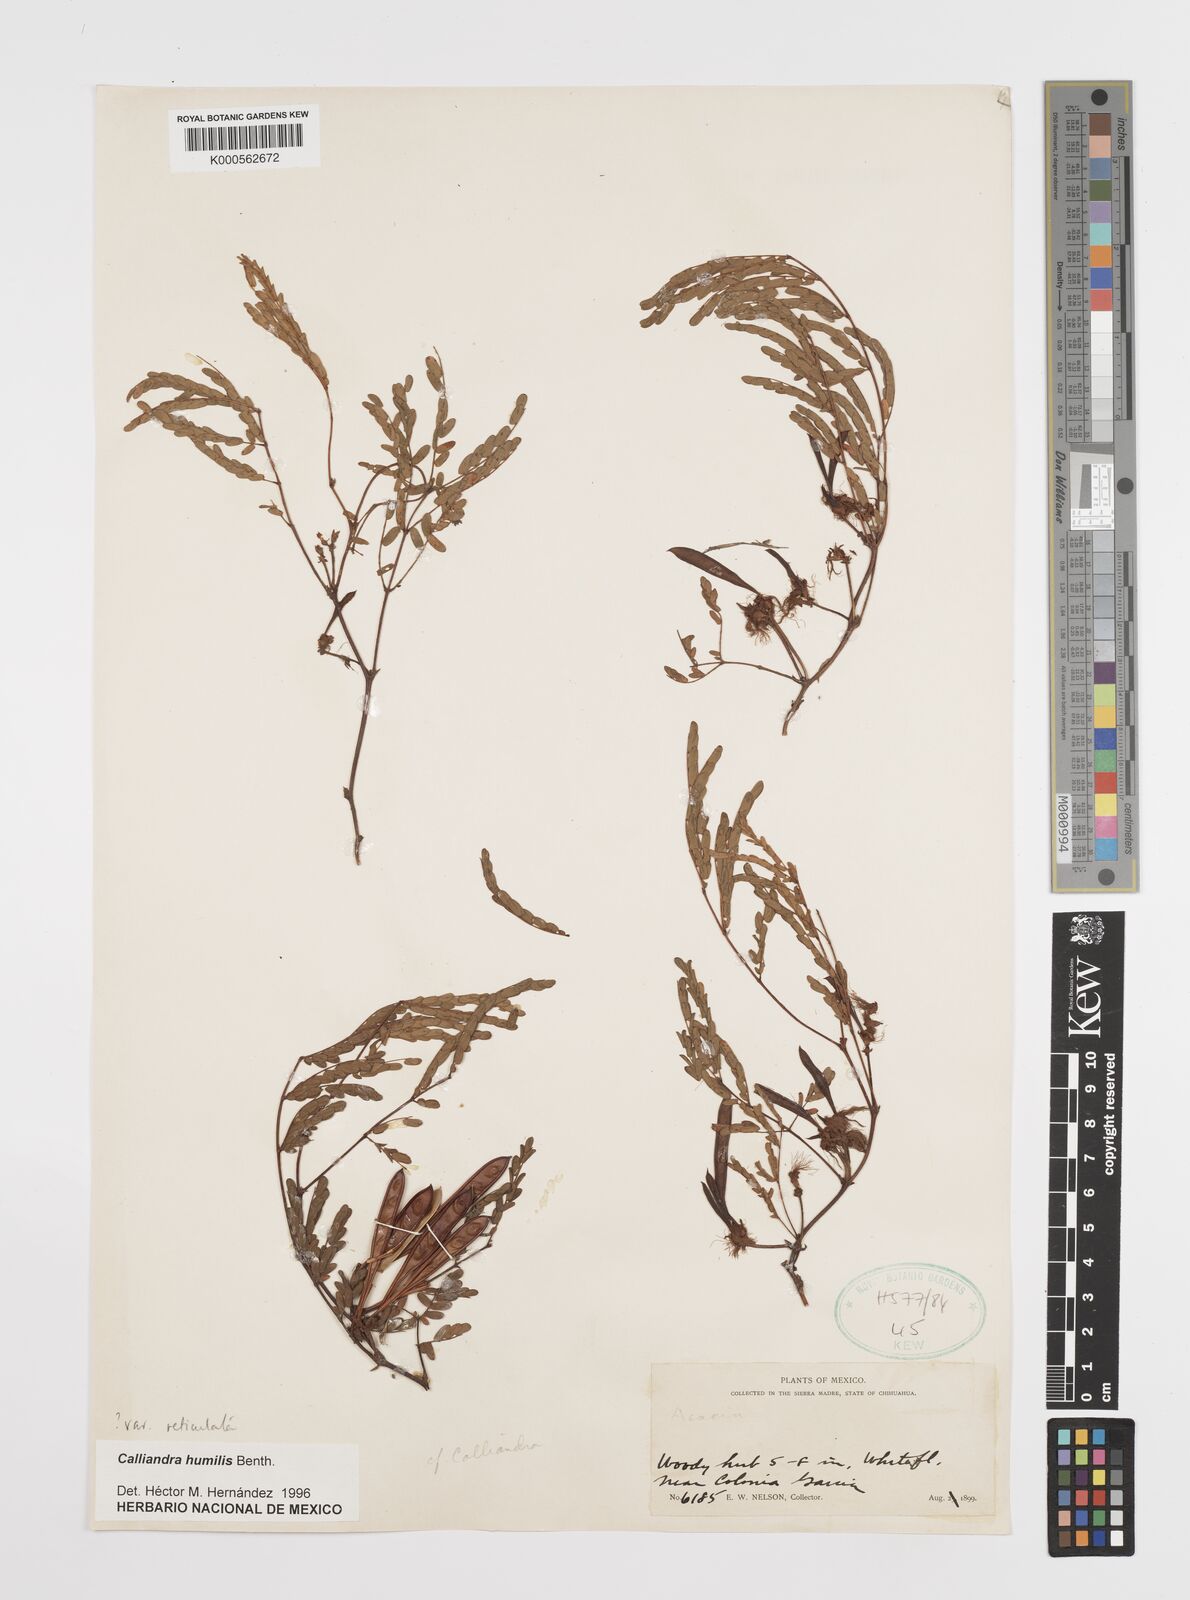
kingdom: Plantae
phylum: Tracheophyta
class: Magnoliopsida
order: Fabales
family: Fabaceae
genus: Calliandra
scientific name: Calliandra humilis
